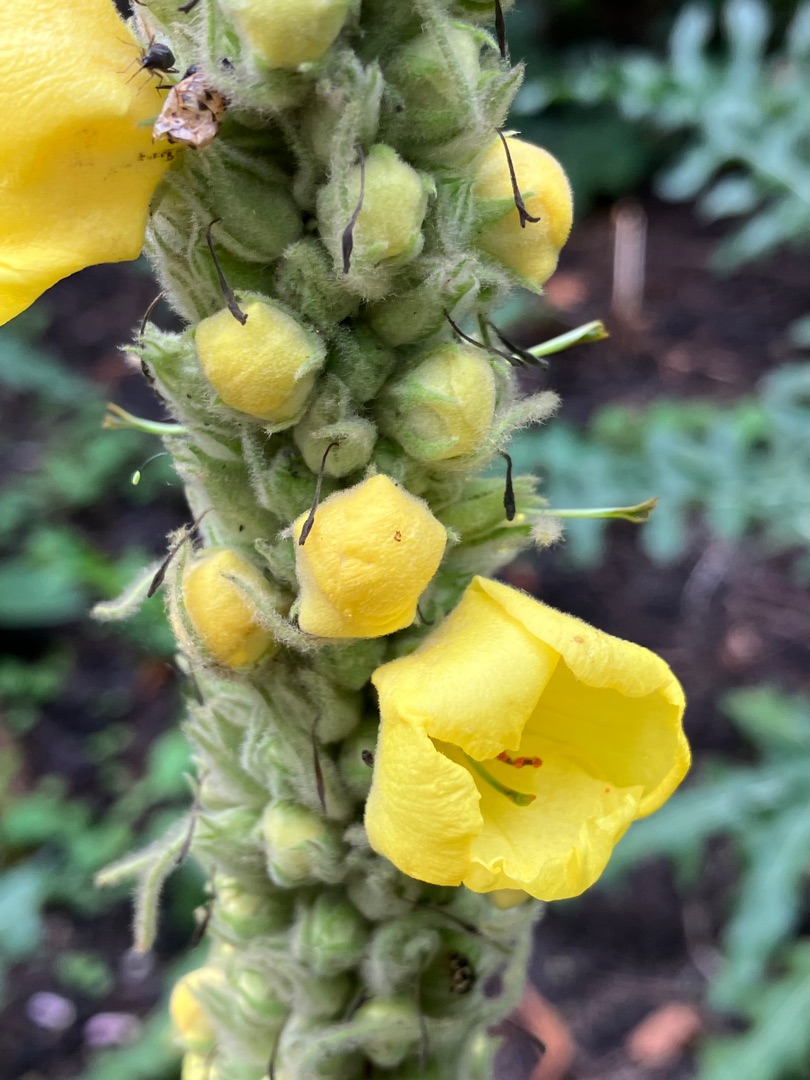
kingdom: Plantae
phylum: Tracheophyta
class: Magnoliopsida
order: Lamiales
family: Scrophulariaceae
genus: Verbascum
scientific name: Verbascum densiflorum
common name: Uldbladet kongelys
